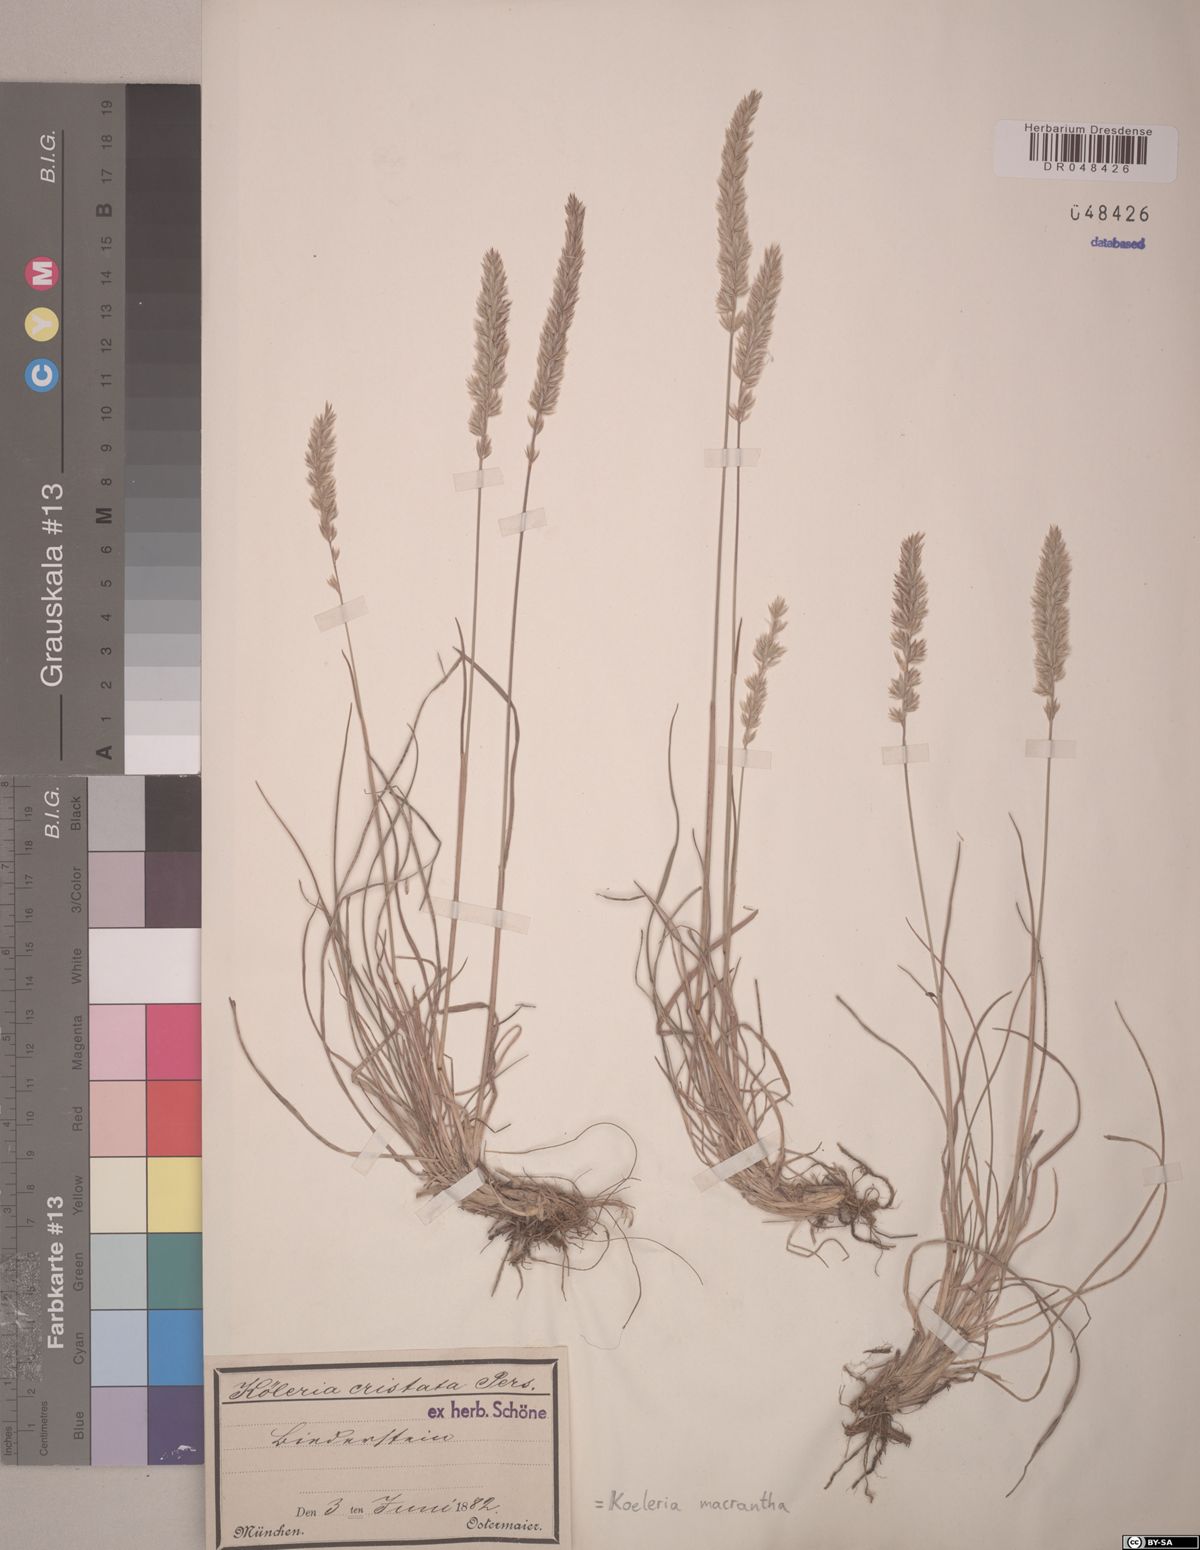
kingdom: Plantae
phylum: Tracheophyta
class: Liliopsida
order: Poales
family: Poaceae
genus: Koeleria
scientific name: Koeleria macrantha
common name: Crested hair-grass
